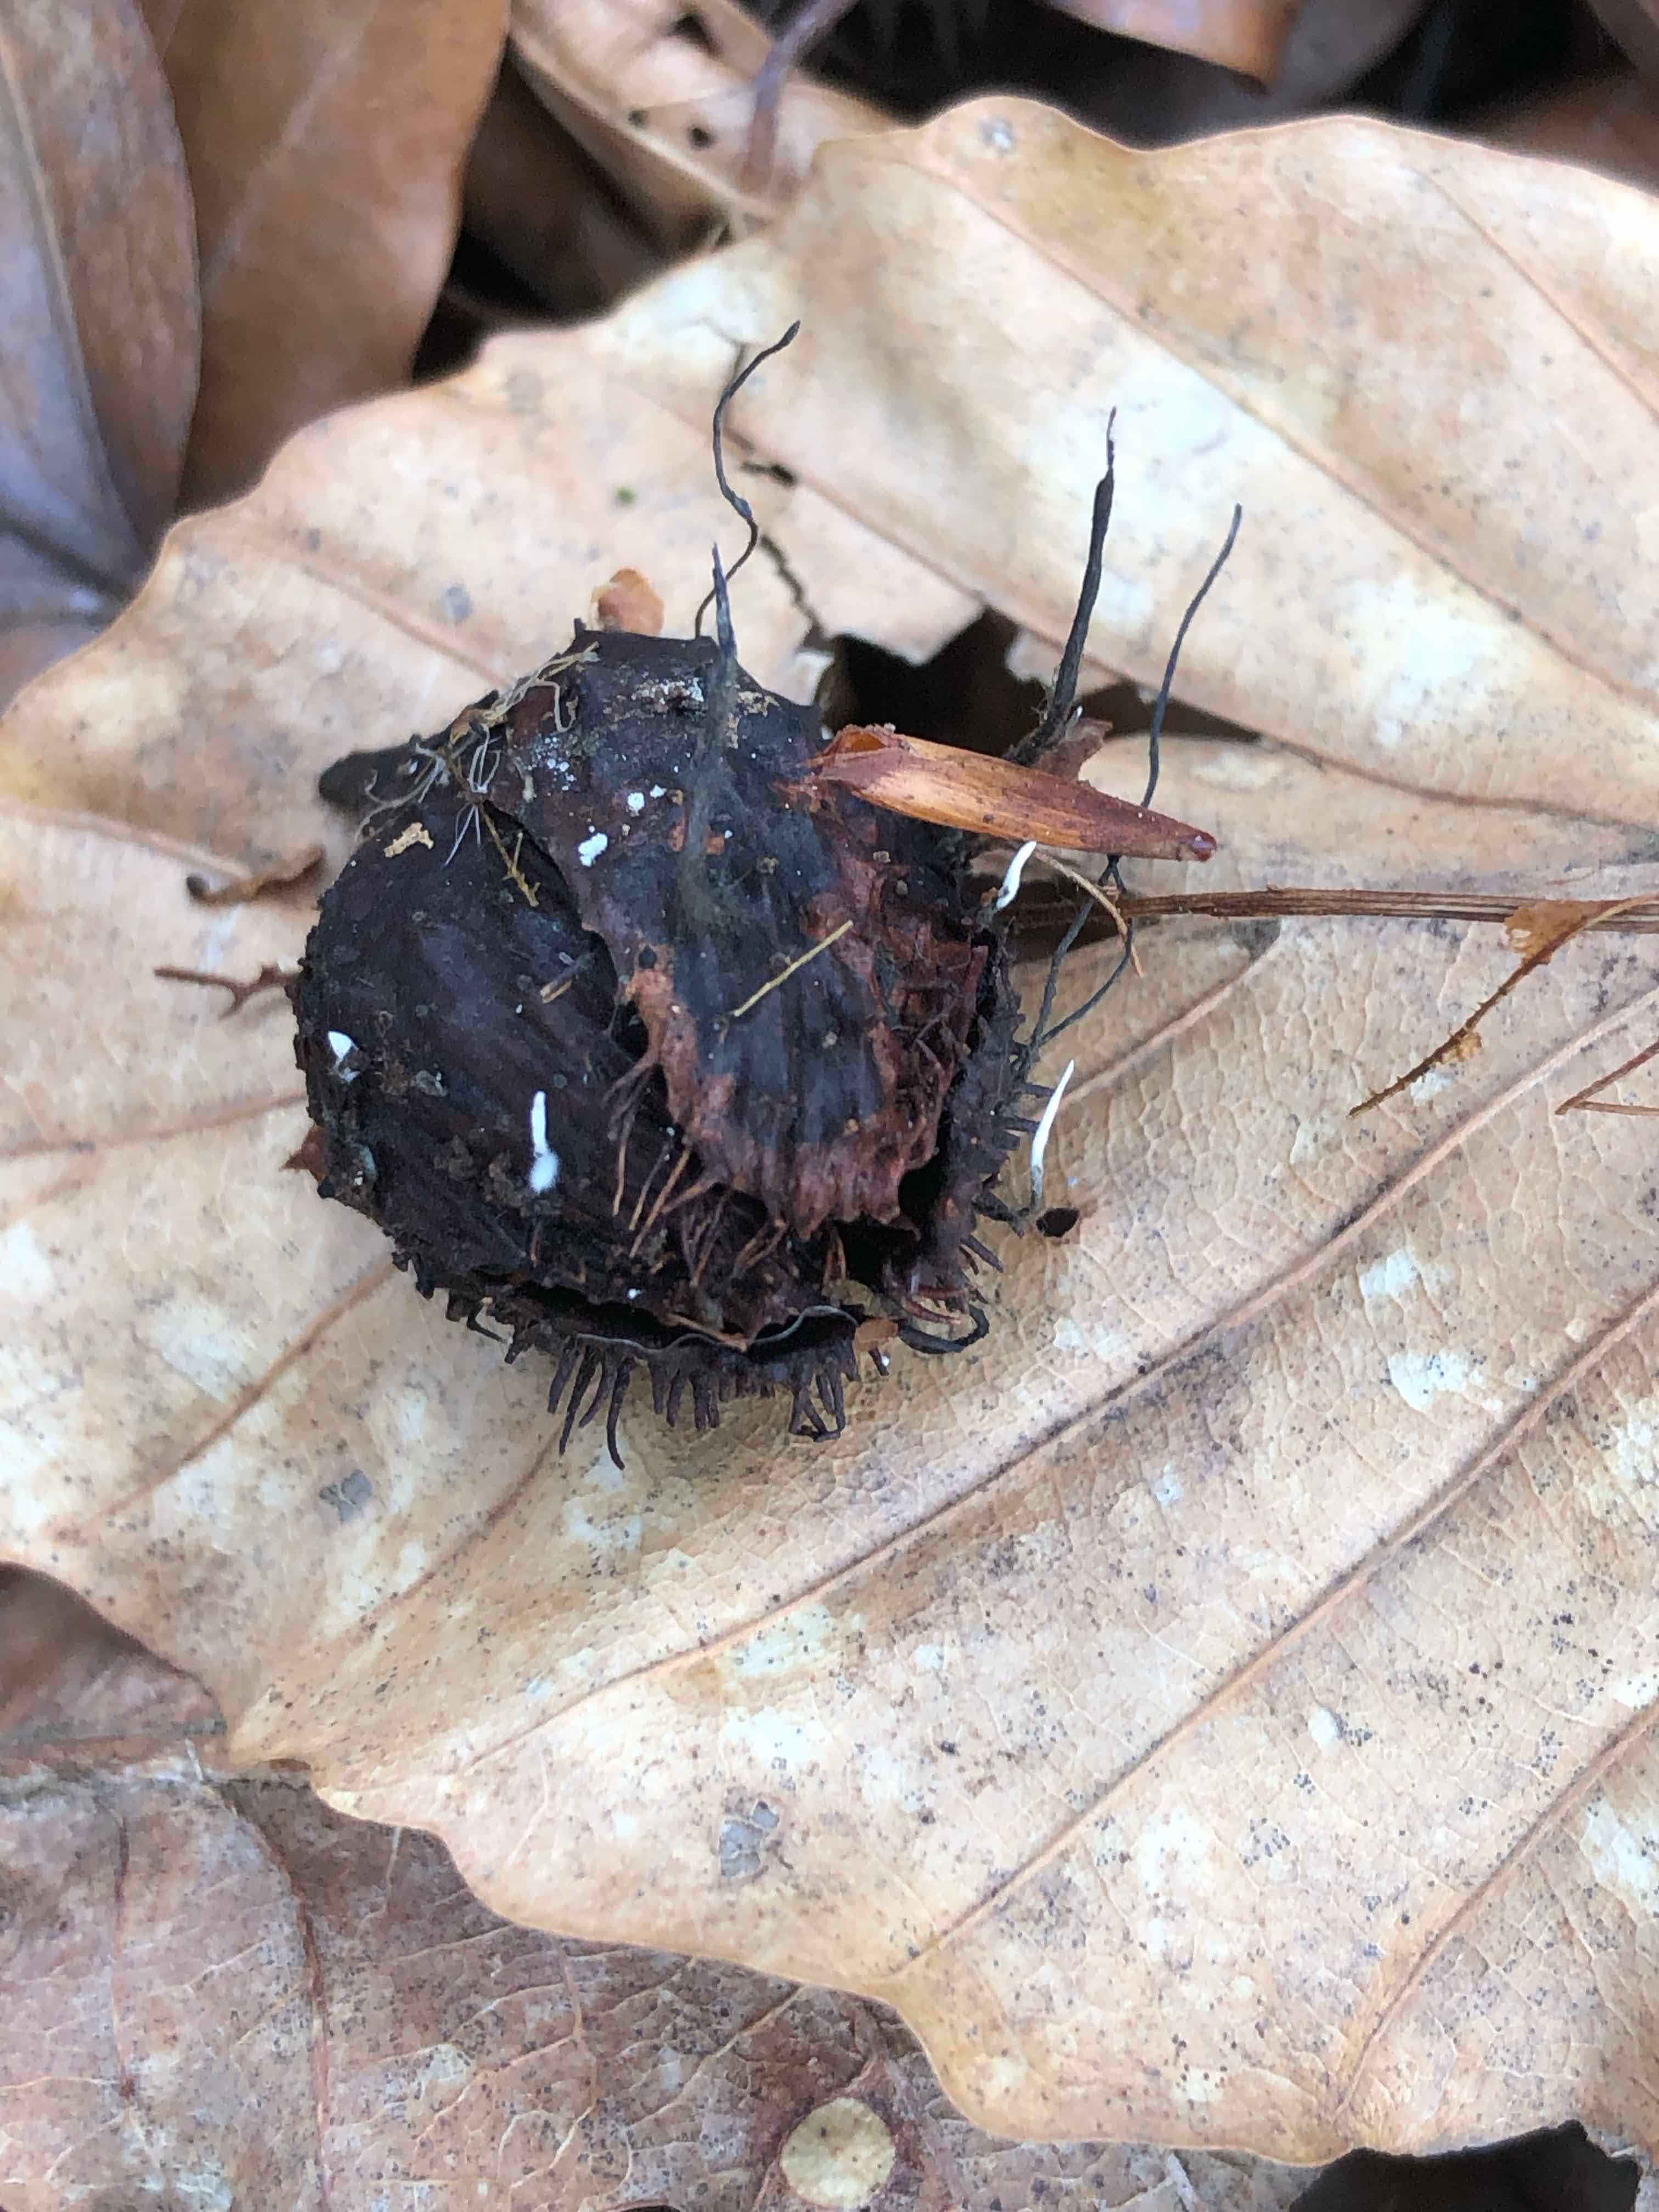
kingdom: Fungi
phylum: Ascomycota
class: Sordariomycetes
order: Xylariales
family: Xylariaceae
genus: Xylaria
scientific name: Xylaria carpophila
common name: bogskål-stødsvamp
